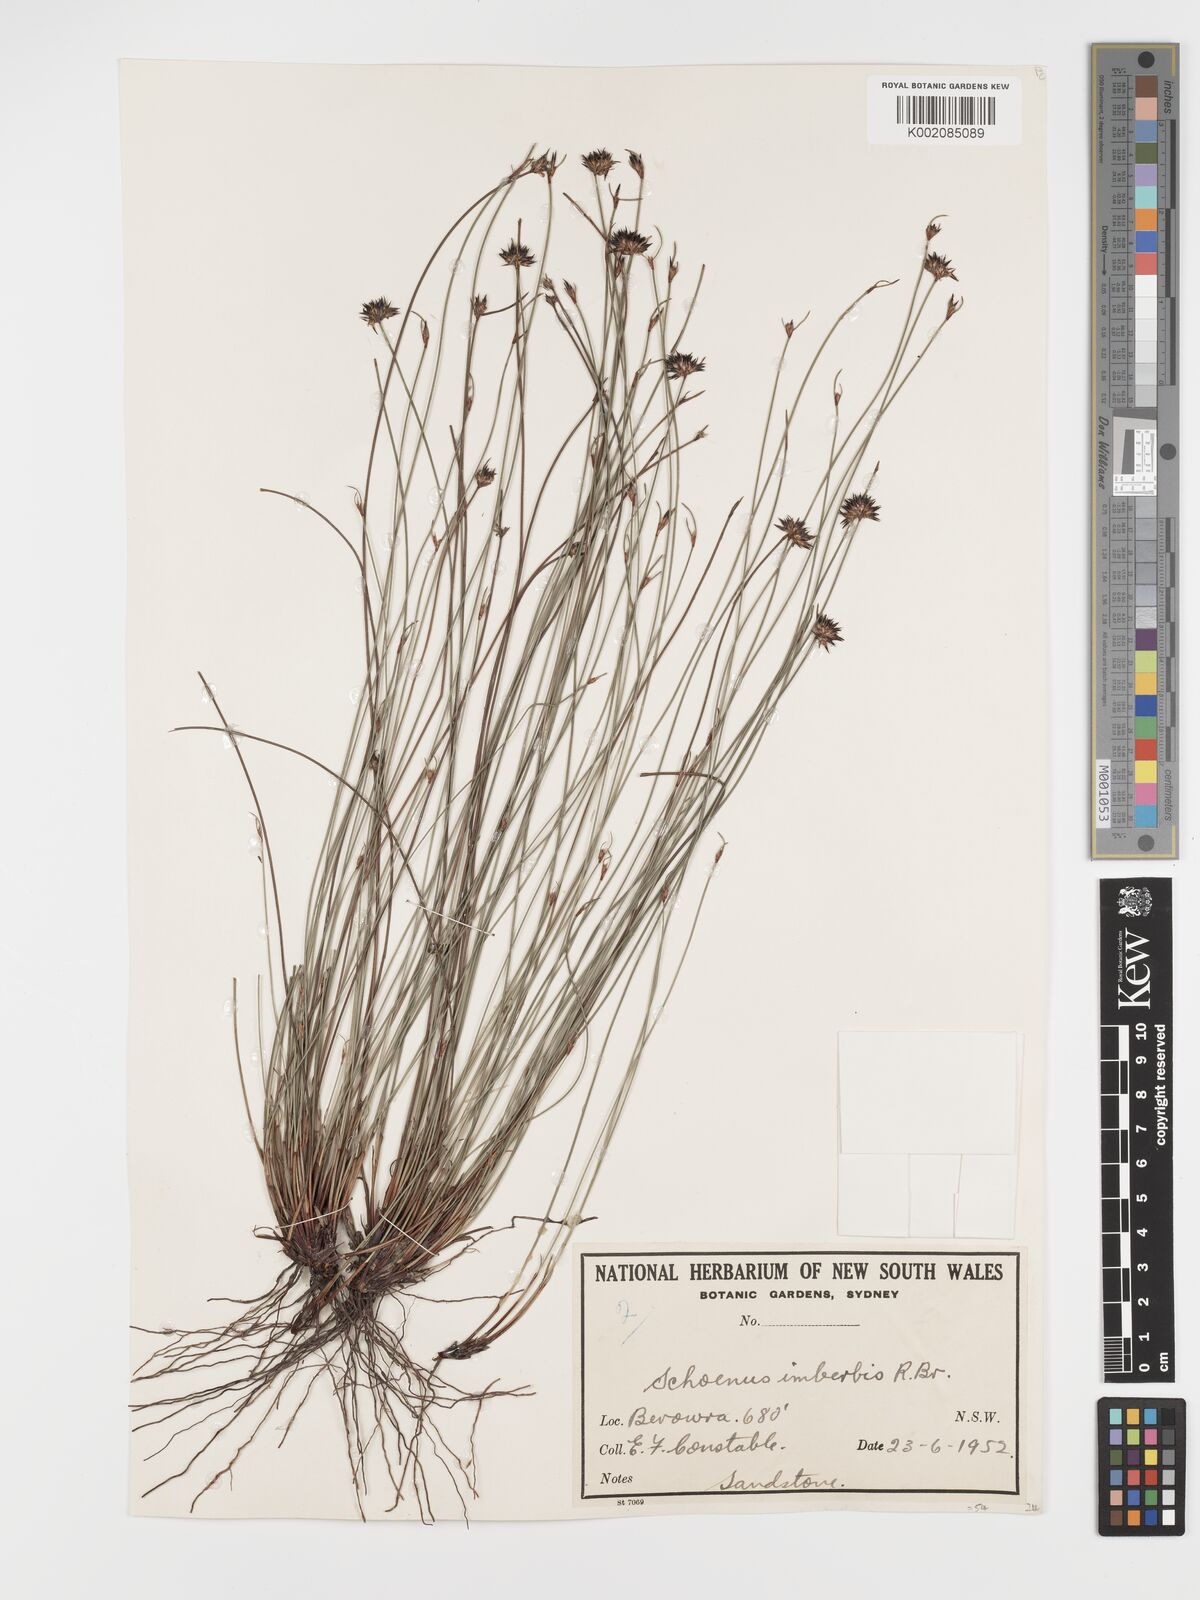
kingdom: Plantae
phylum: Tracheophyta
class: Liliopsida
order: Poales
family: Cyperaceae
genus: Schoenus
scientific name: Schoenus imberbis
